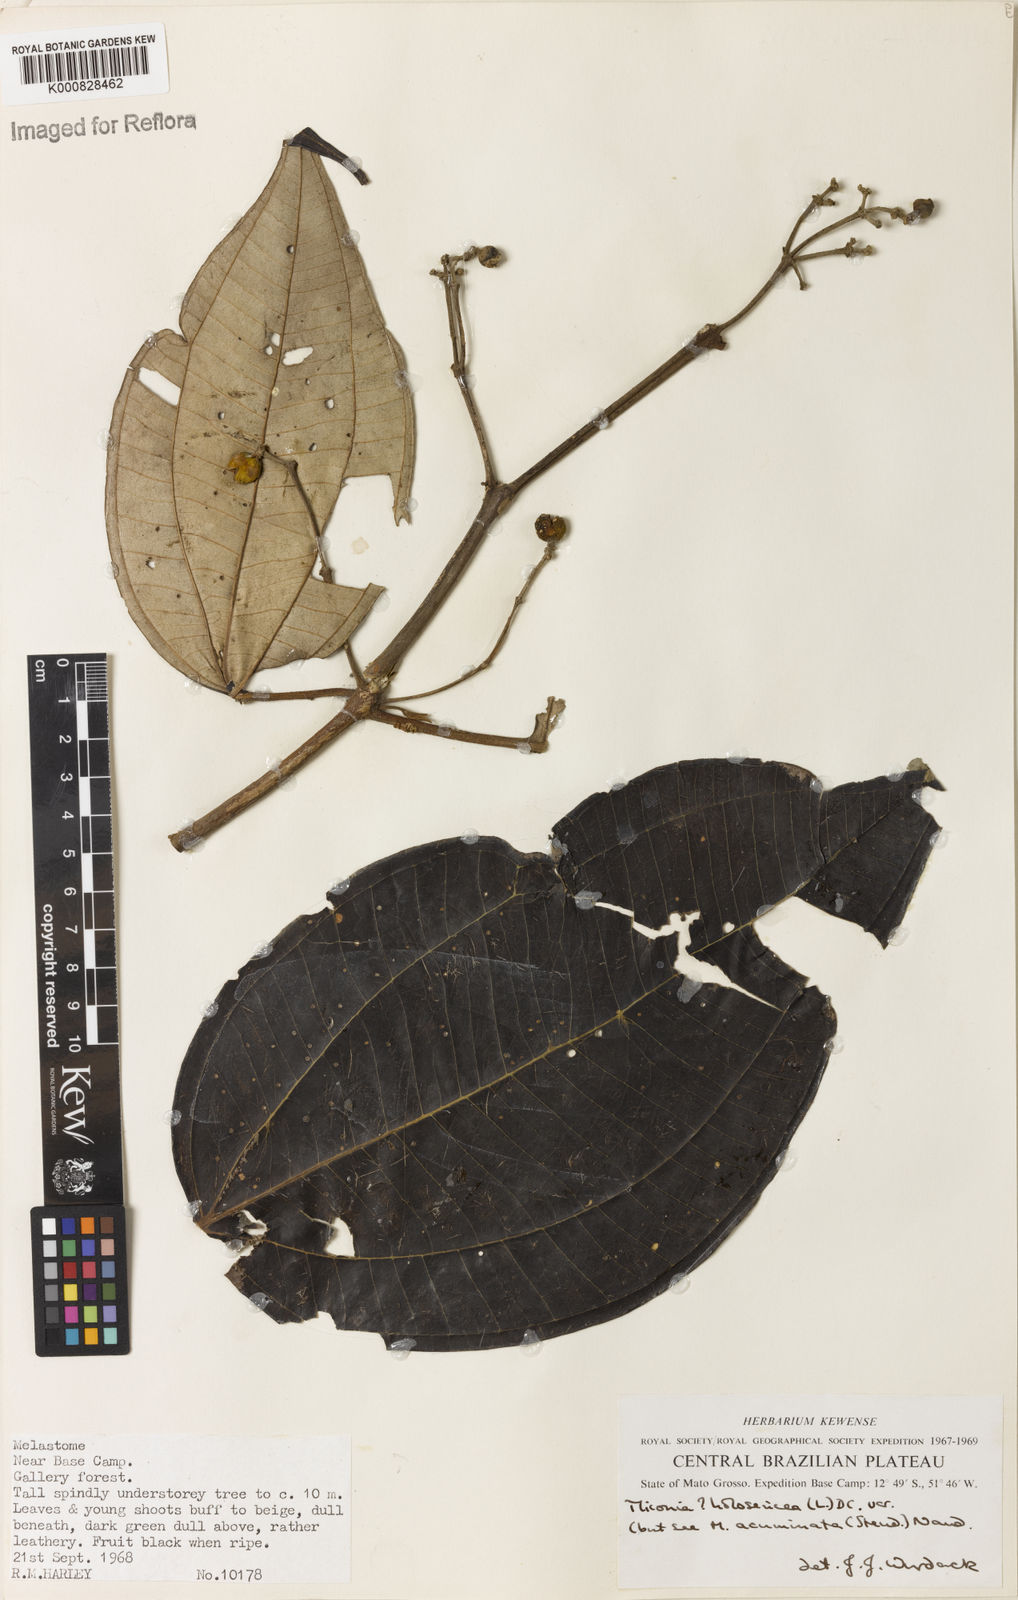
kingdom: Plantae
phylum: Tracheophyta
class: Magnoliopsida
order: Myrtales
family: Melastomataceae
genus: Miconia
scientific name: Miconia holosericea
